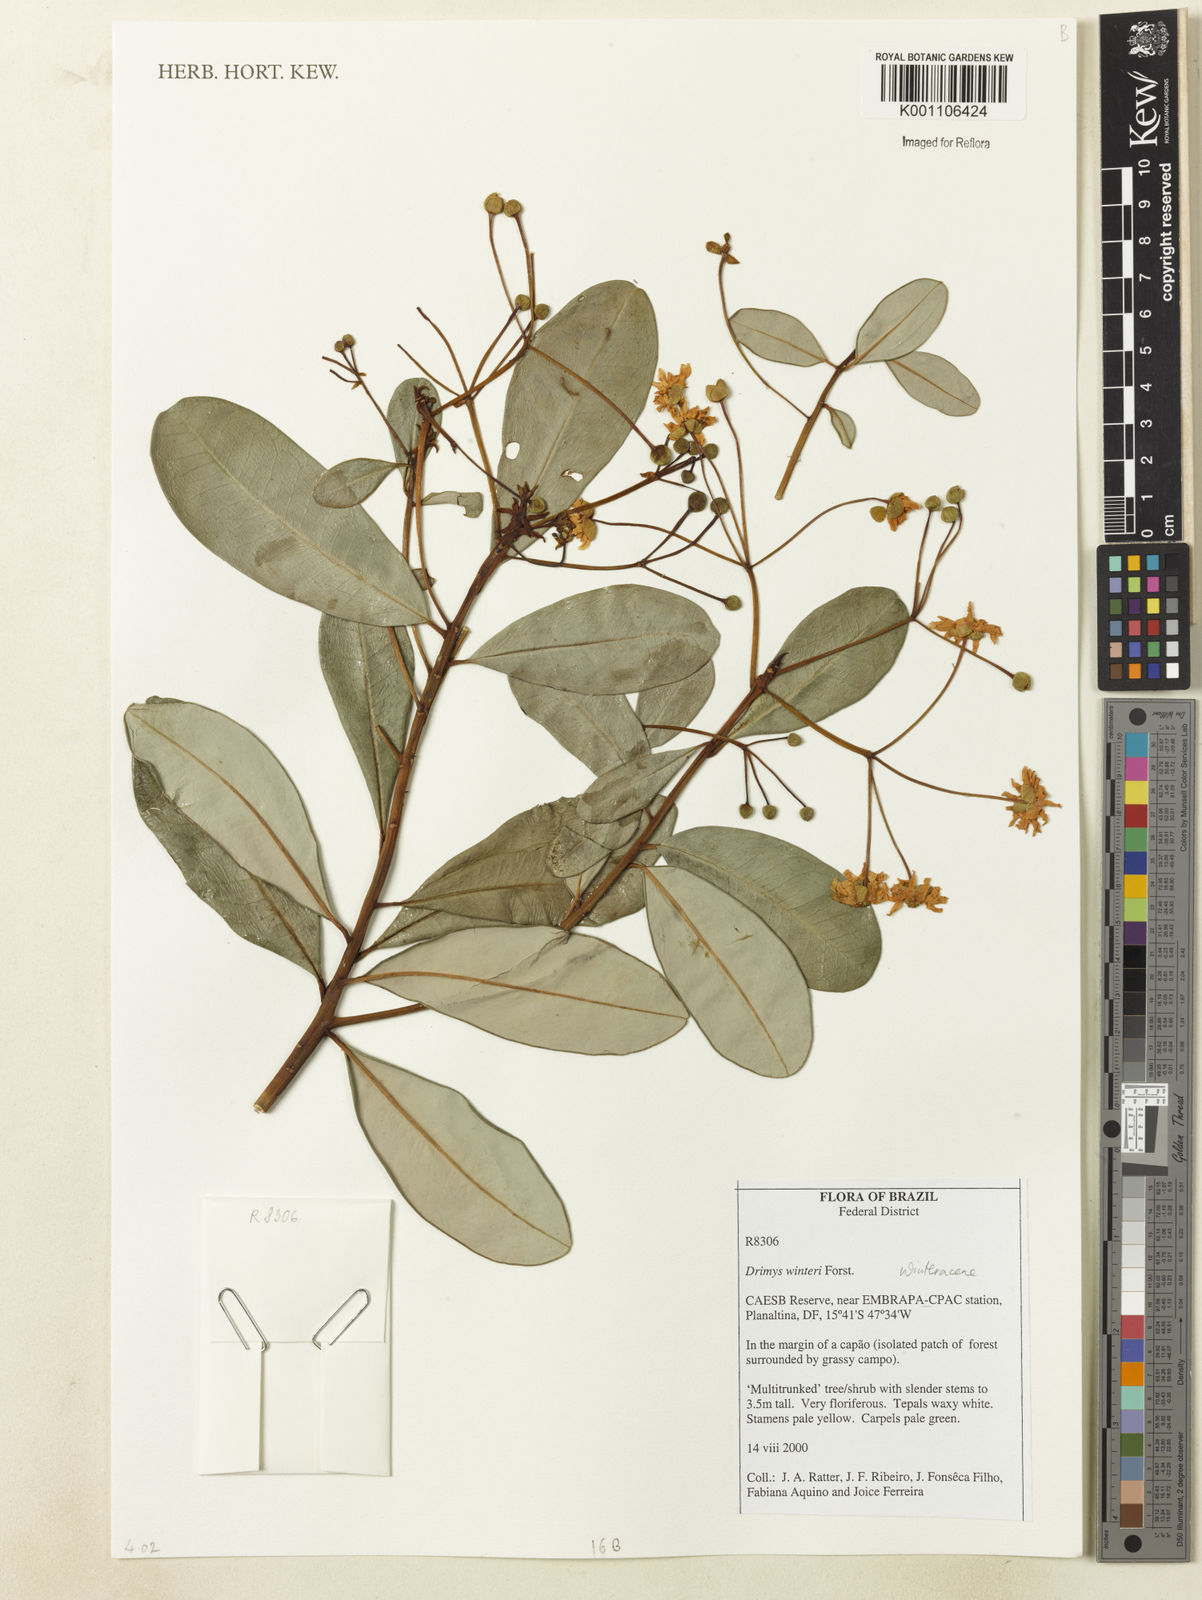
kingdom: Plantae
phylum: Tracheophyta
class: Magnoliopsida
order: Canellales
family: Winteraceae
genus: Drimys
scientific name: Drimys winteri
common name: Winter's-bark
